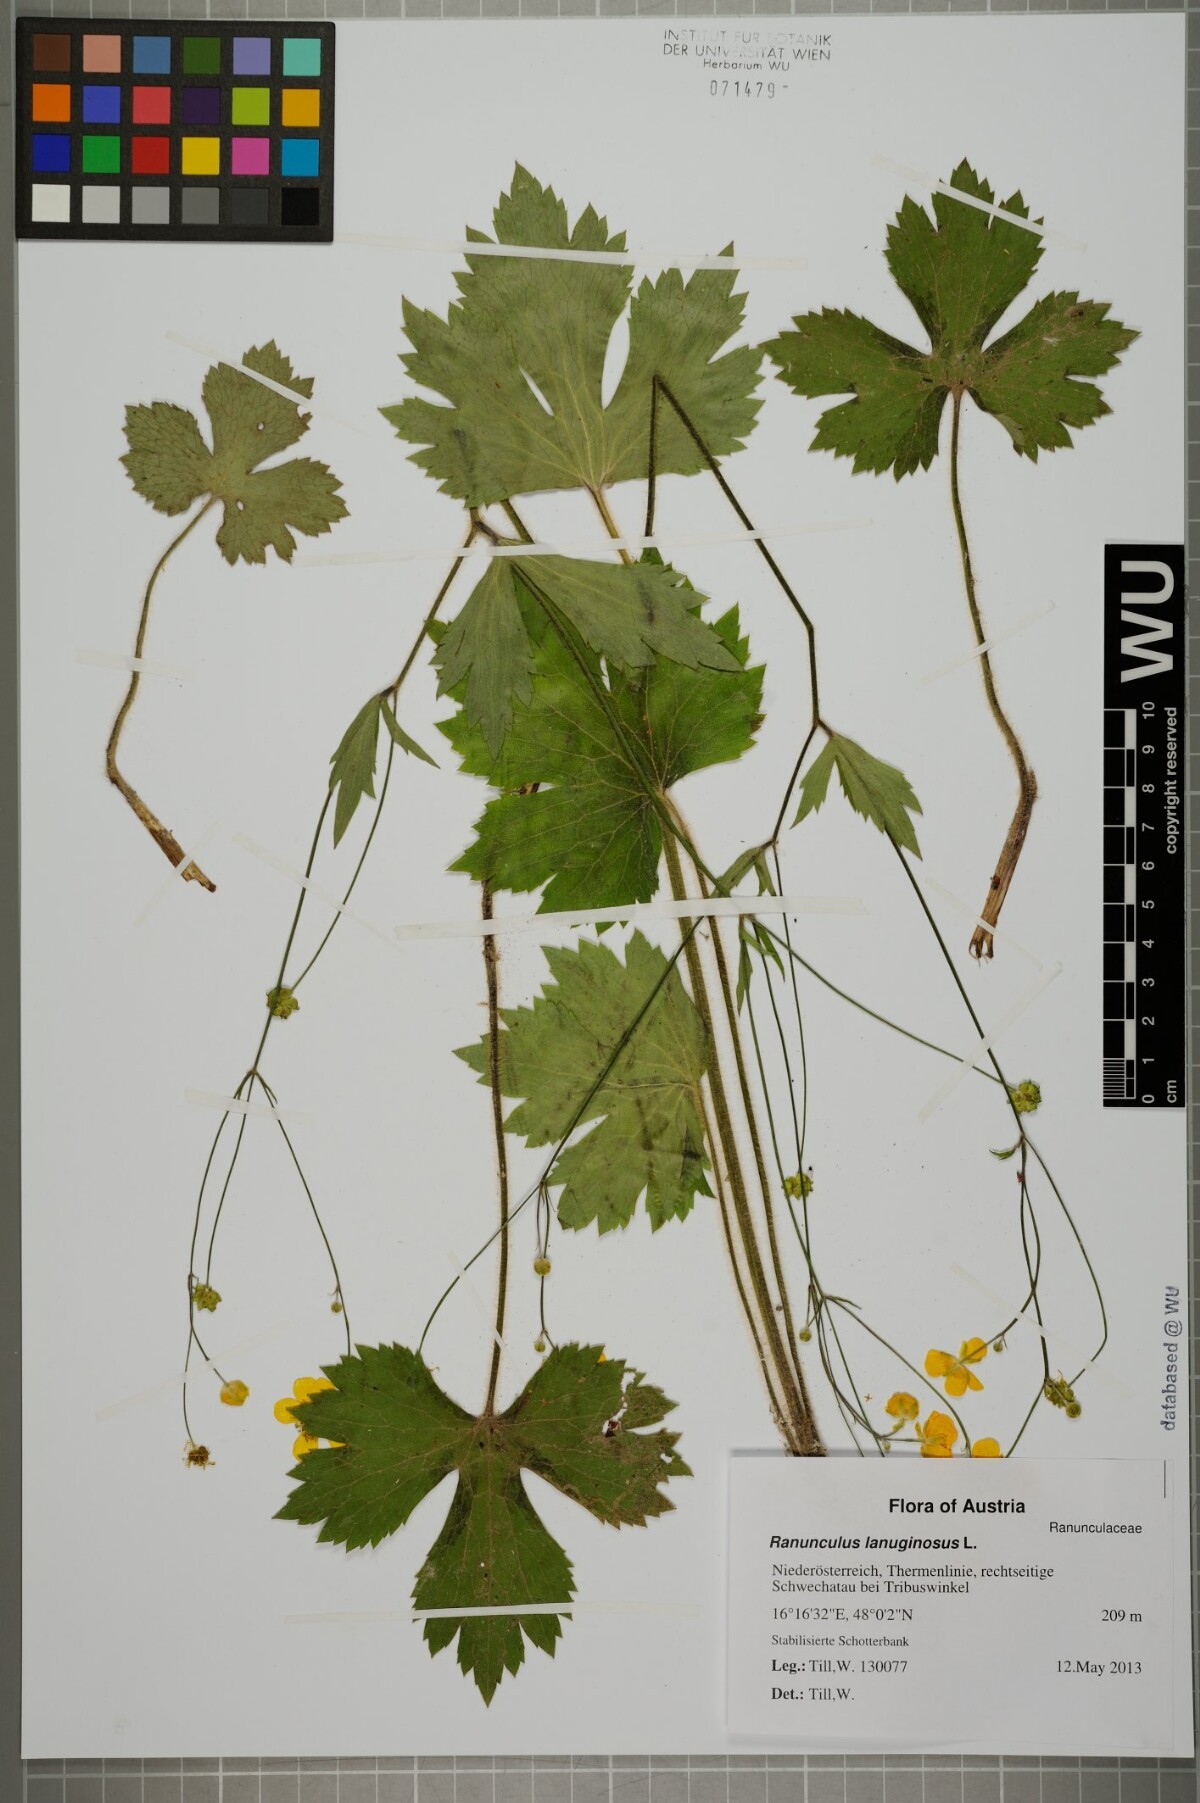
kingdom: Plantae
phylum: Tracheophyta
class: Magnoliopsida
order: Ranunculales
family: Ranunculaceae
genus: Ranunculus
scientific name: Ranunculus lanuginosus
